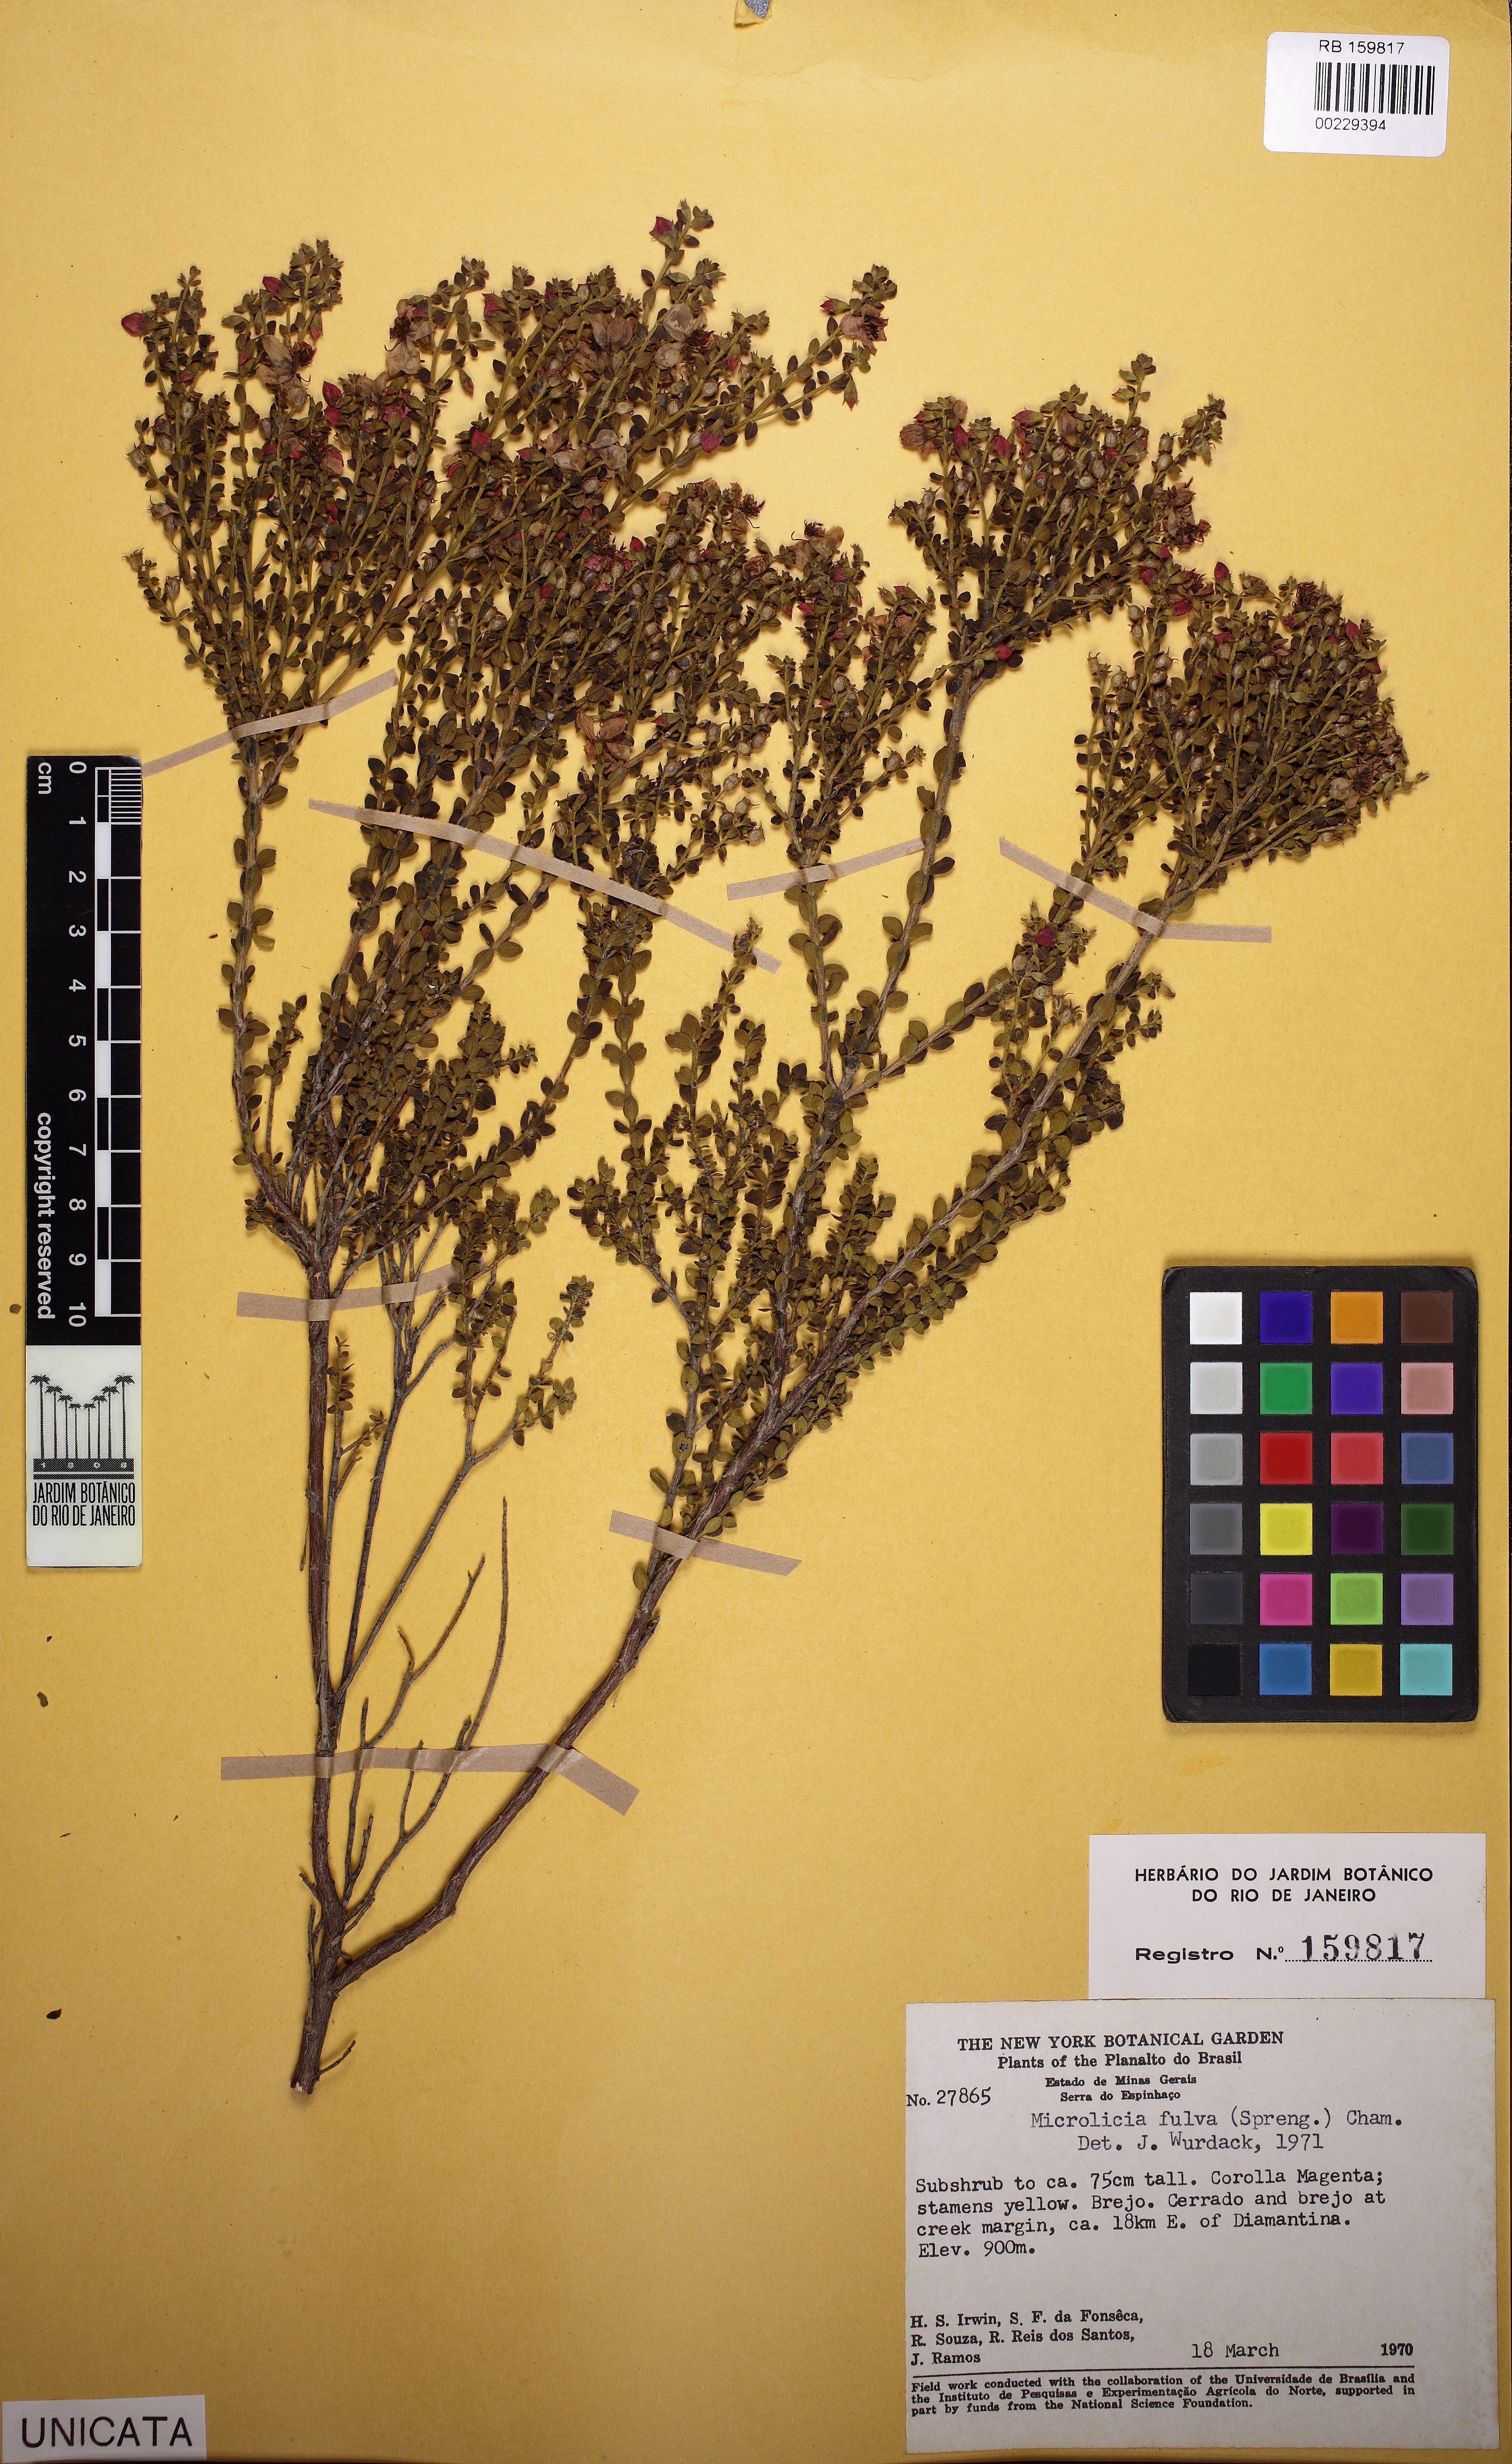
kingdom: Plantae
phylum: Tracheophyta
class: Magnoliopsida
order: Myrtales
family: Melastomataceae
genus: Microlicia
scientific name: Microlicia fulva
